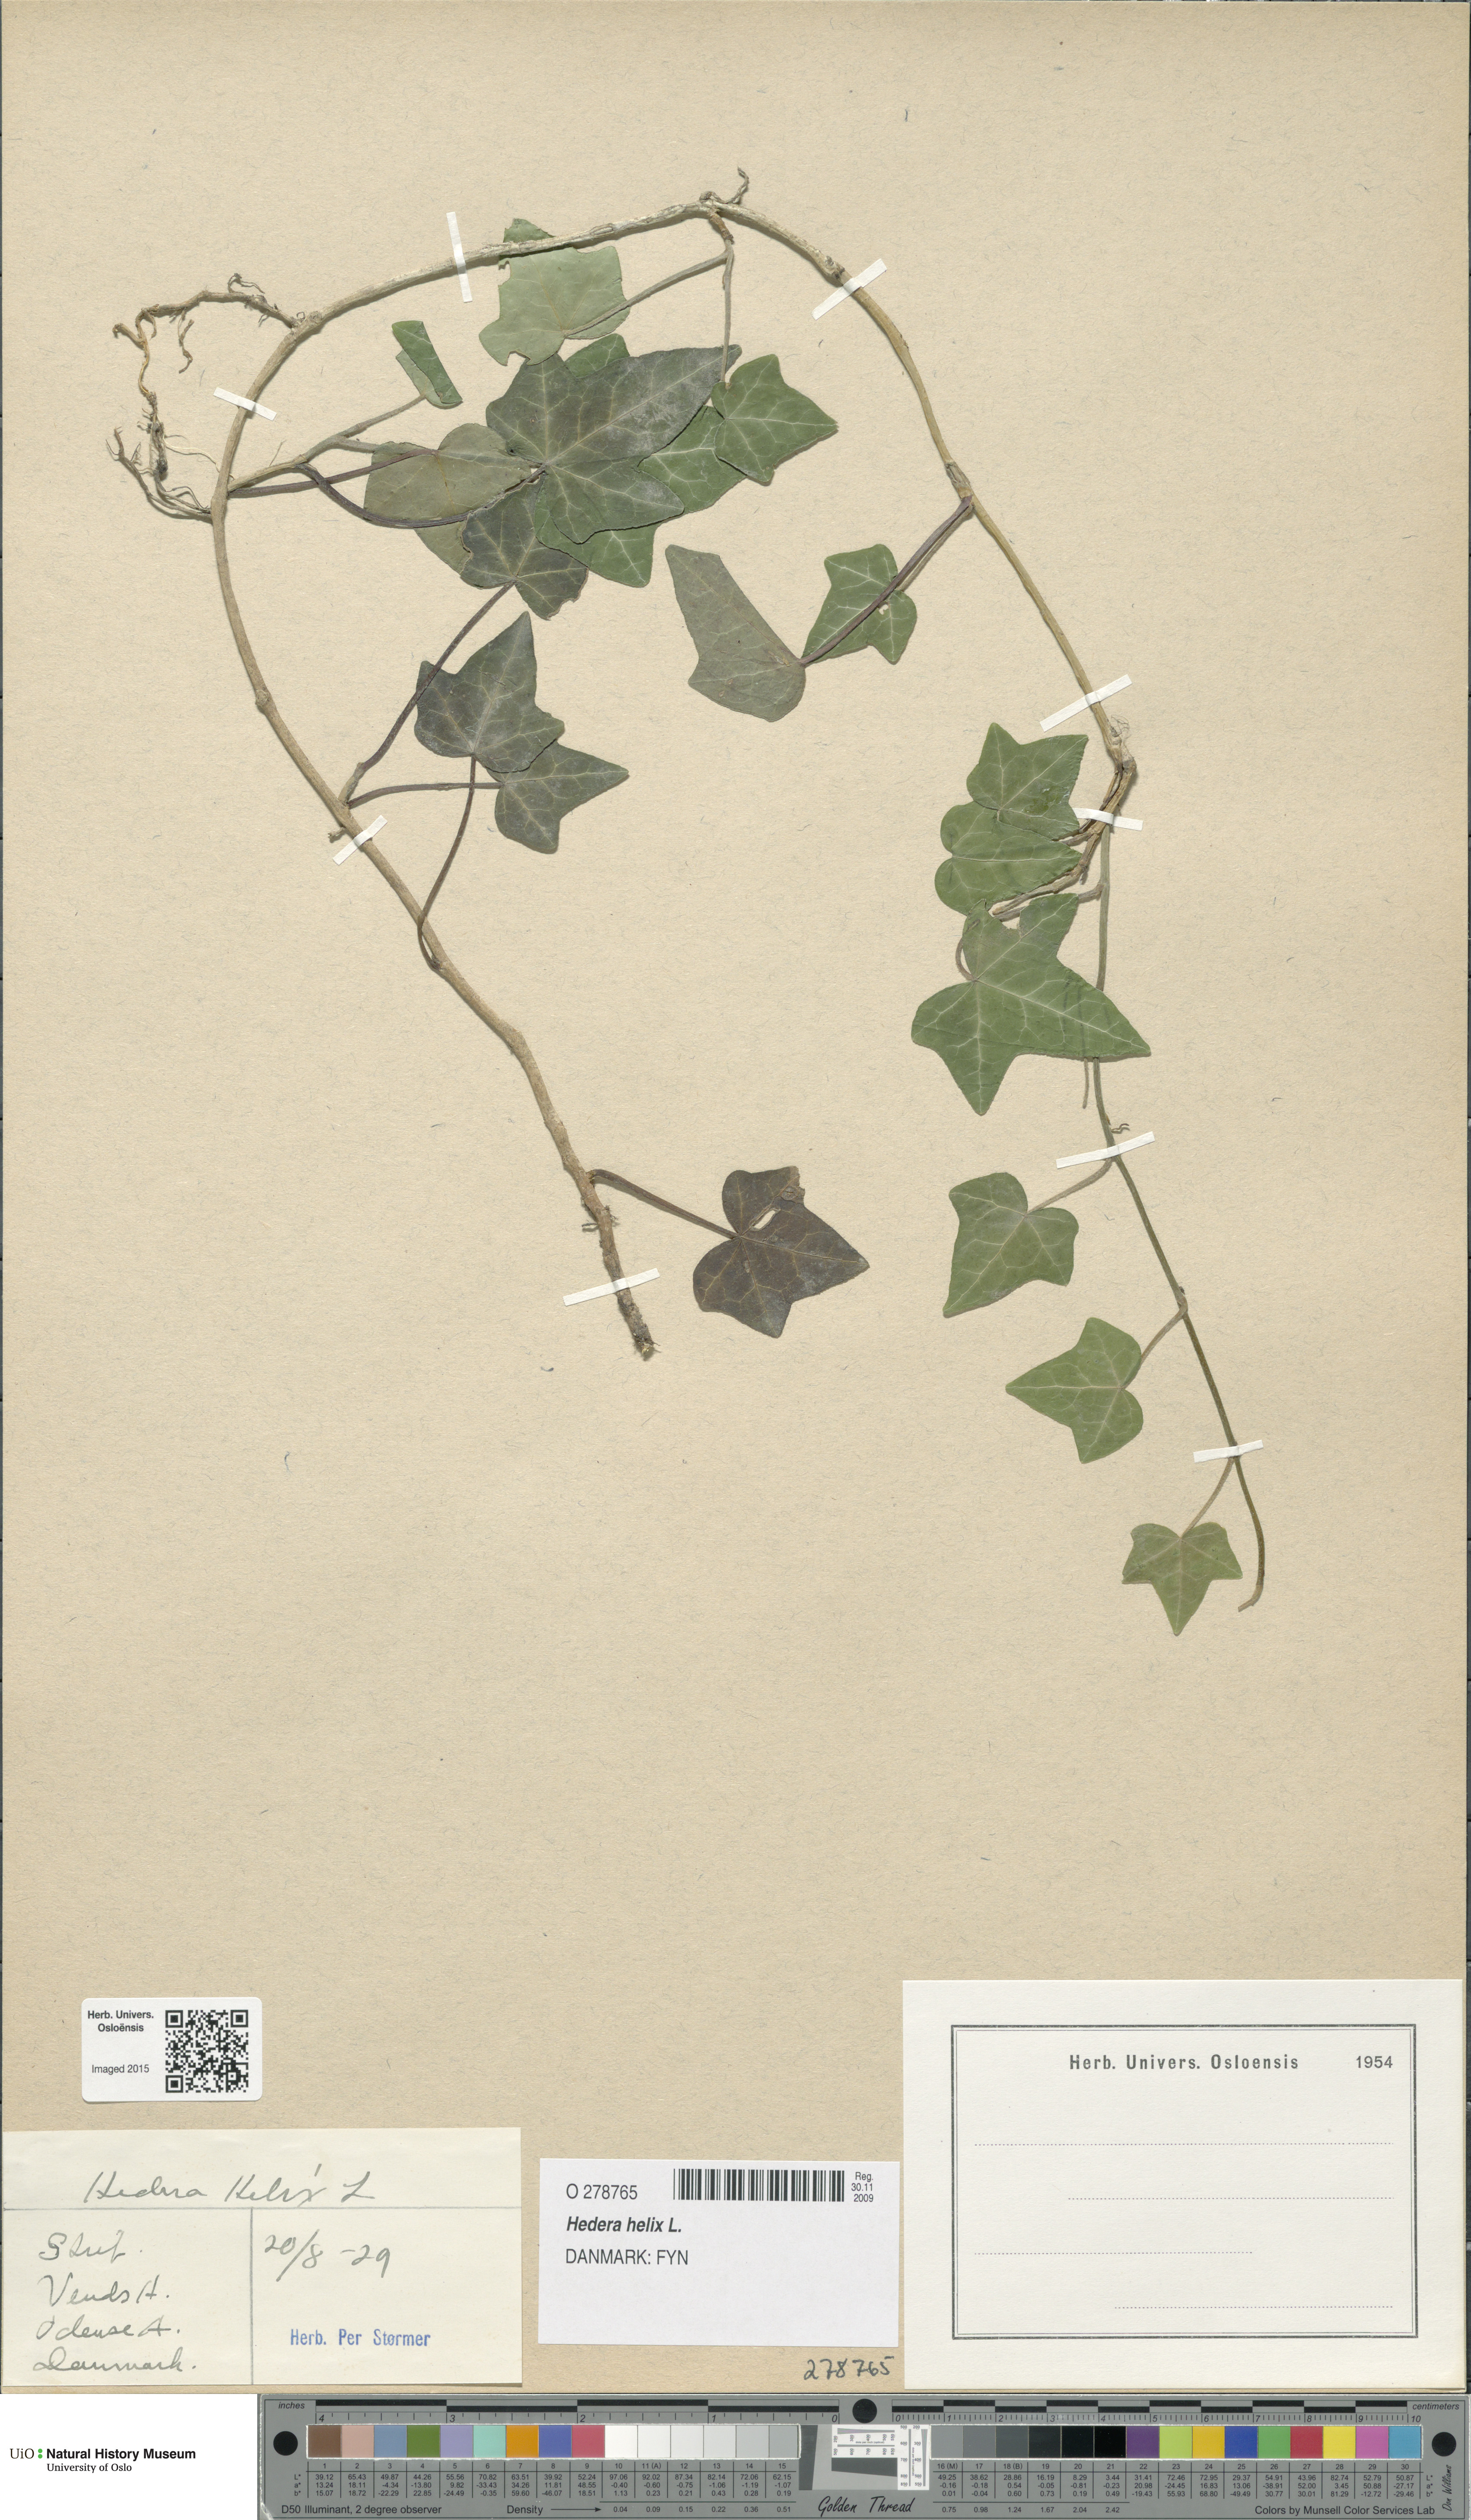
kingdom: Plantae
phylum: Tracheophyta
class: Magnoliopsida
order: Apiales
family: Araliaceae
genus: Hedera
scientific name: Hedera helix
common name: Ivy
